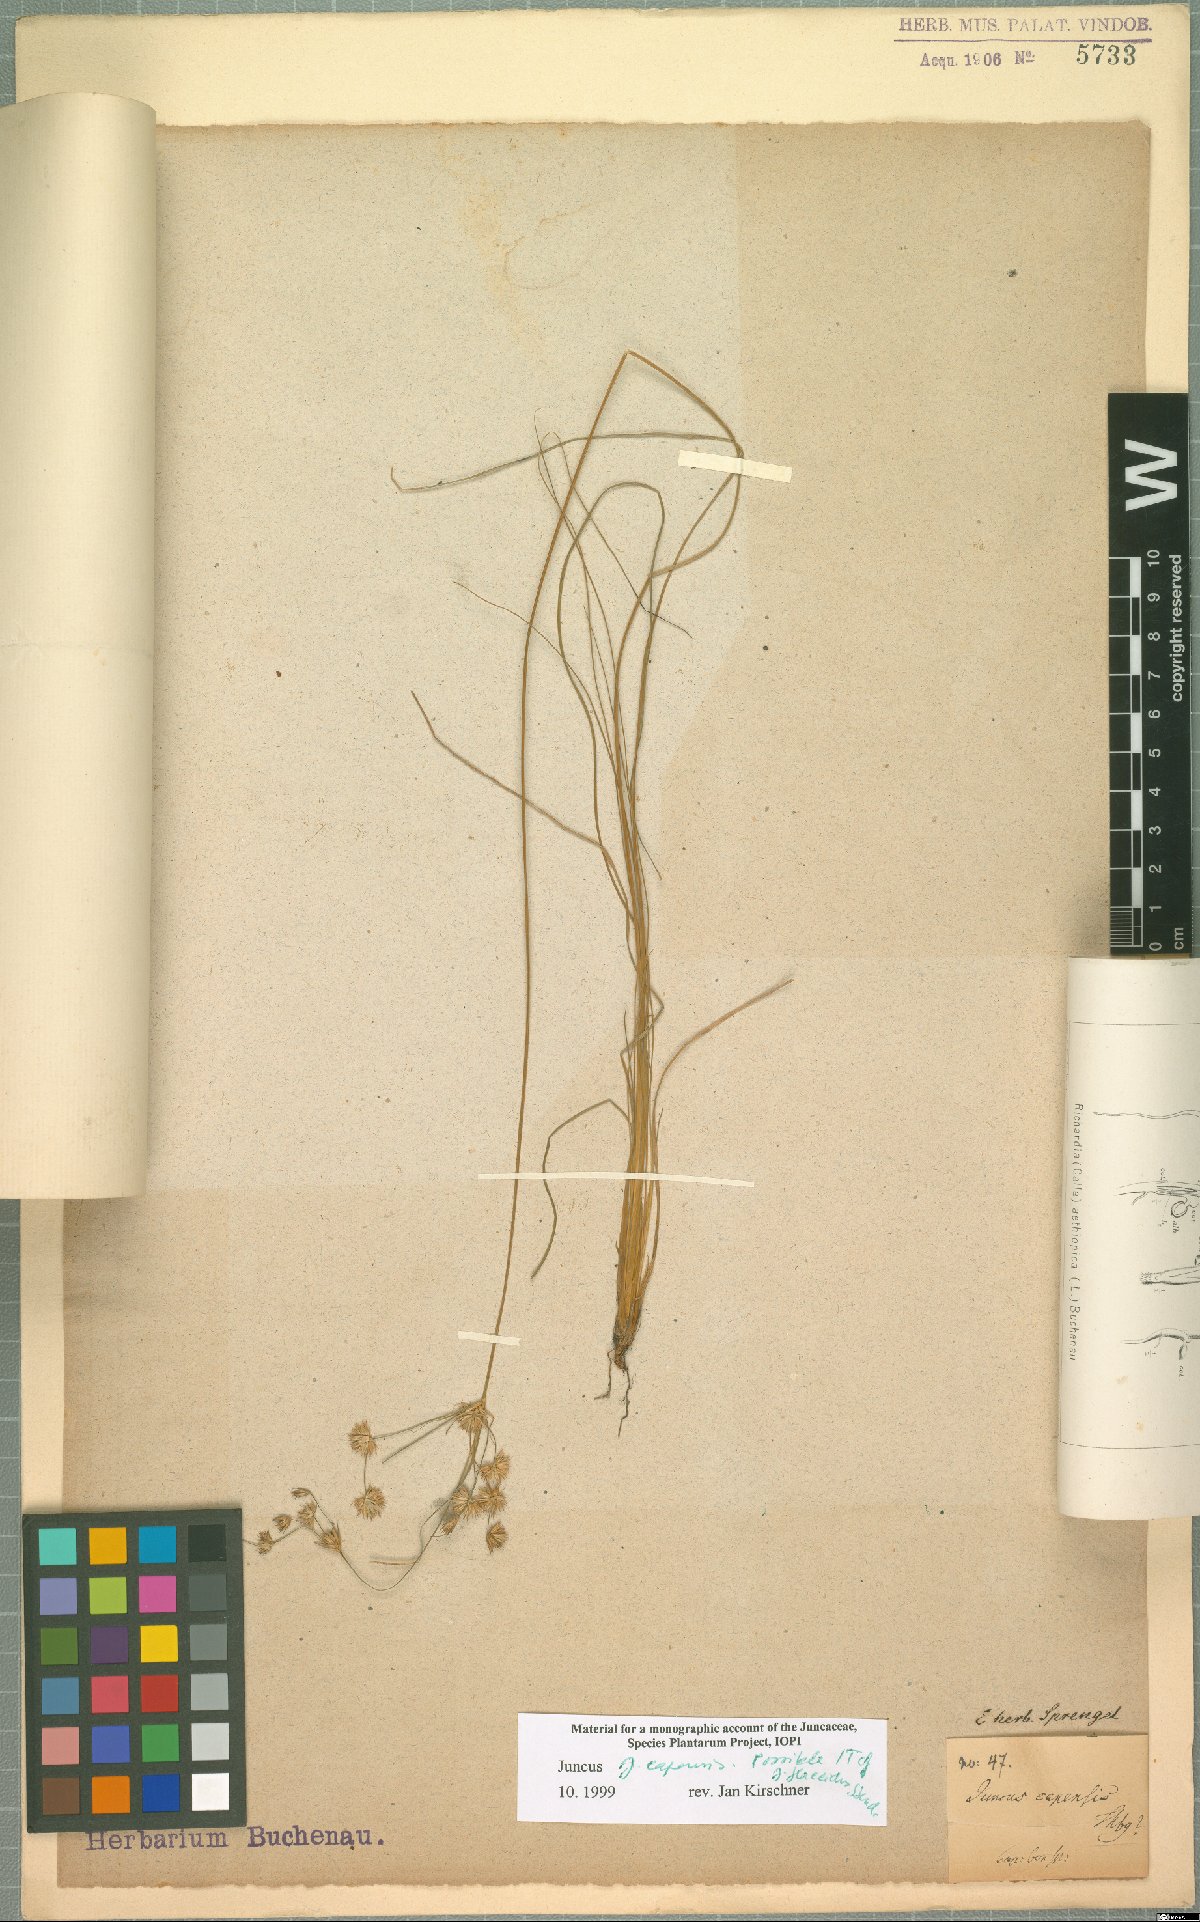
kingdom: Plantae
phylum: Tracheophyta
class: Liliopsida
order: Poales
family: Juncaceae
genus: Juncus
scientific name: Juncus capensis
